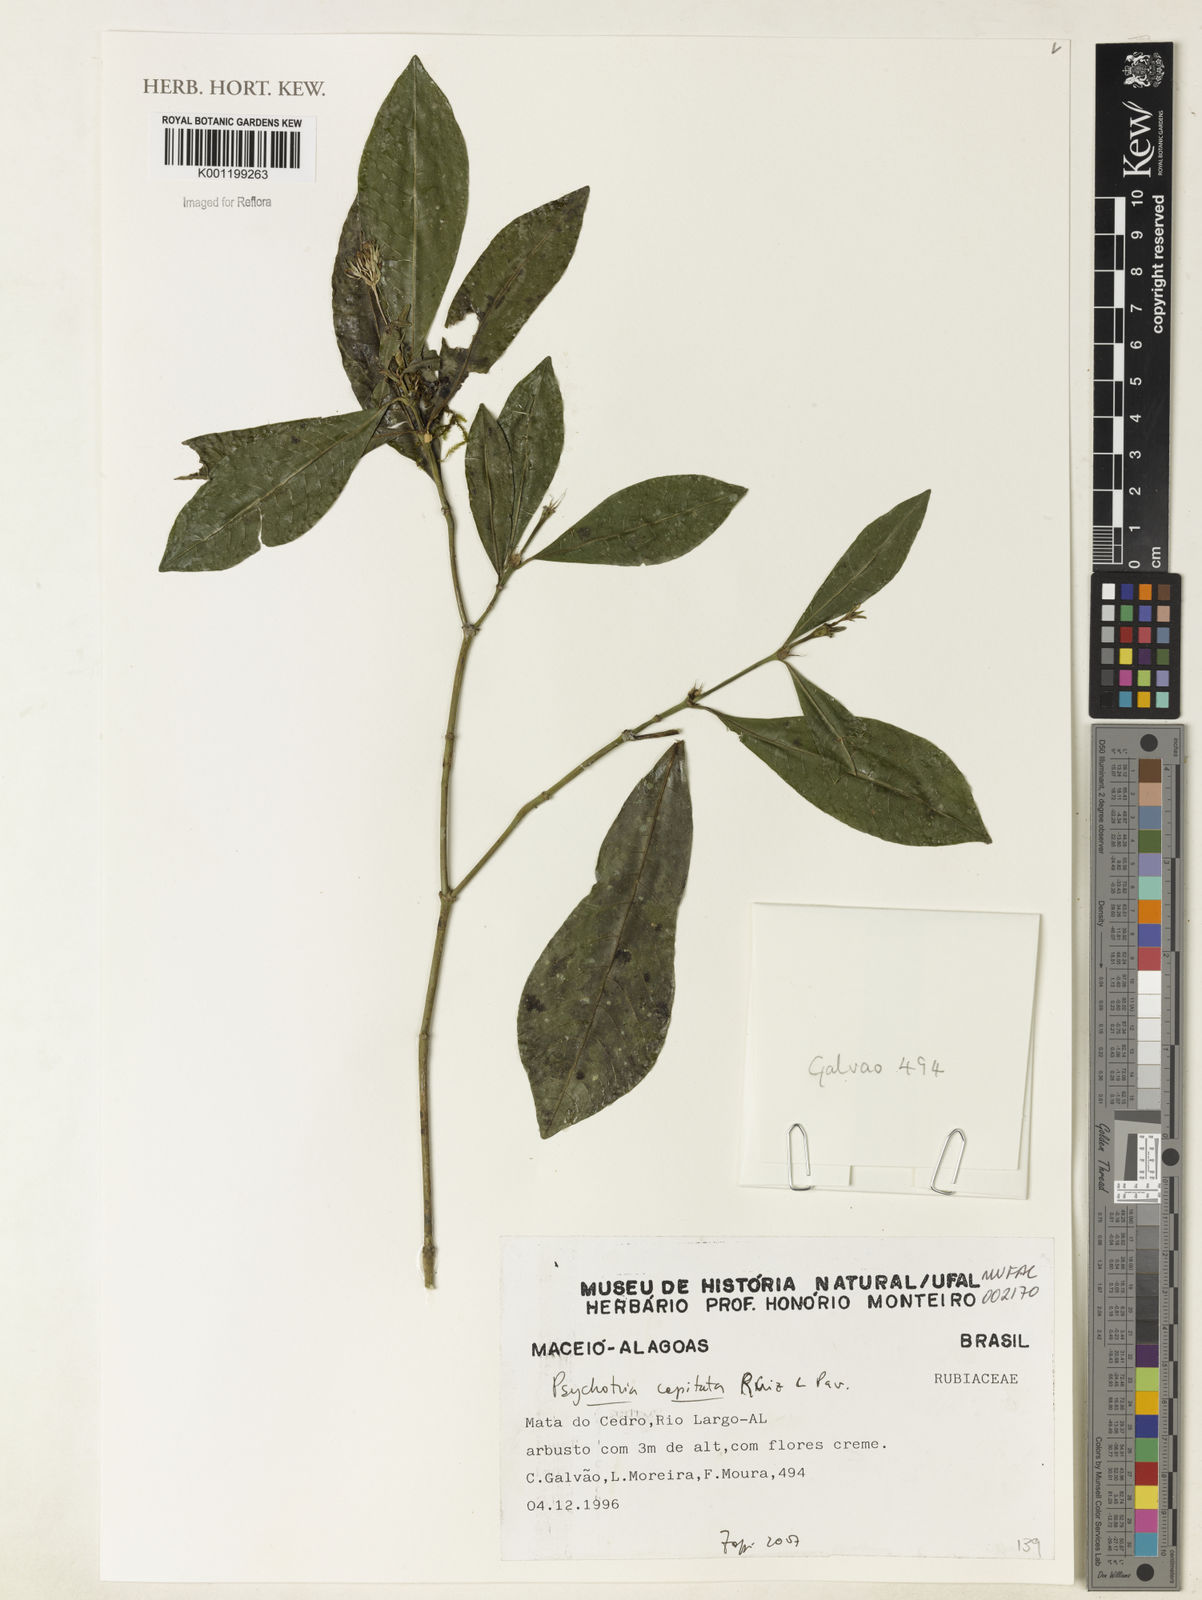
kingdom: Plantae
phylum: Tracheophyta
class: Magnoliopsida
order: Gentianales
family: Rubiaceae
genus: Palicourea
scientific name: Palicourea violacea
